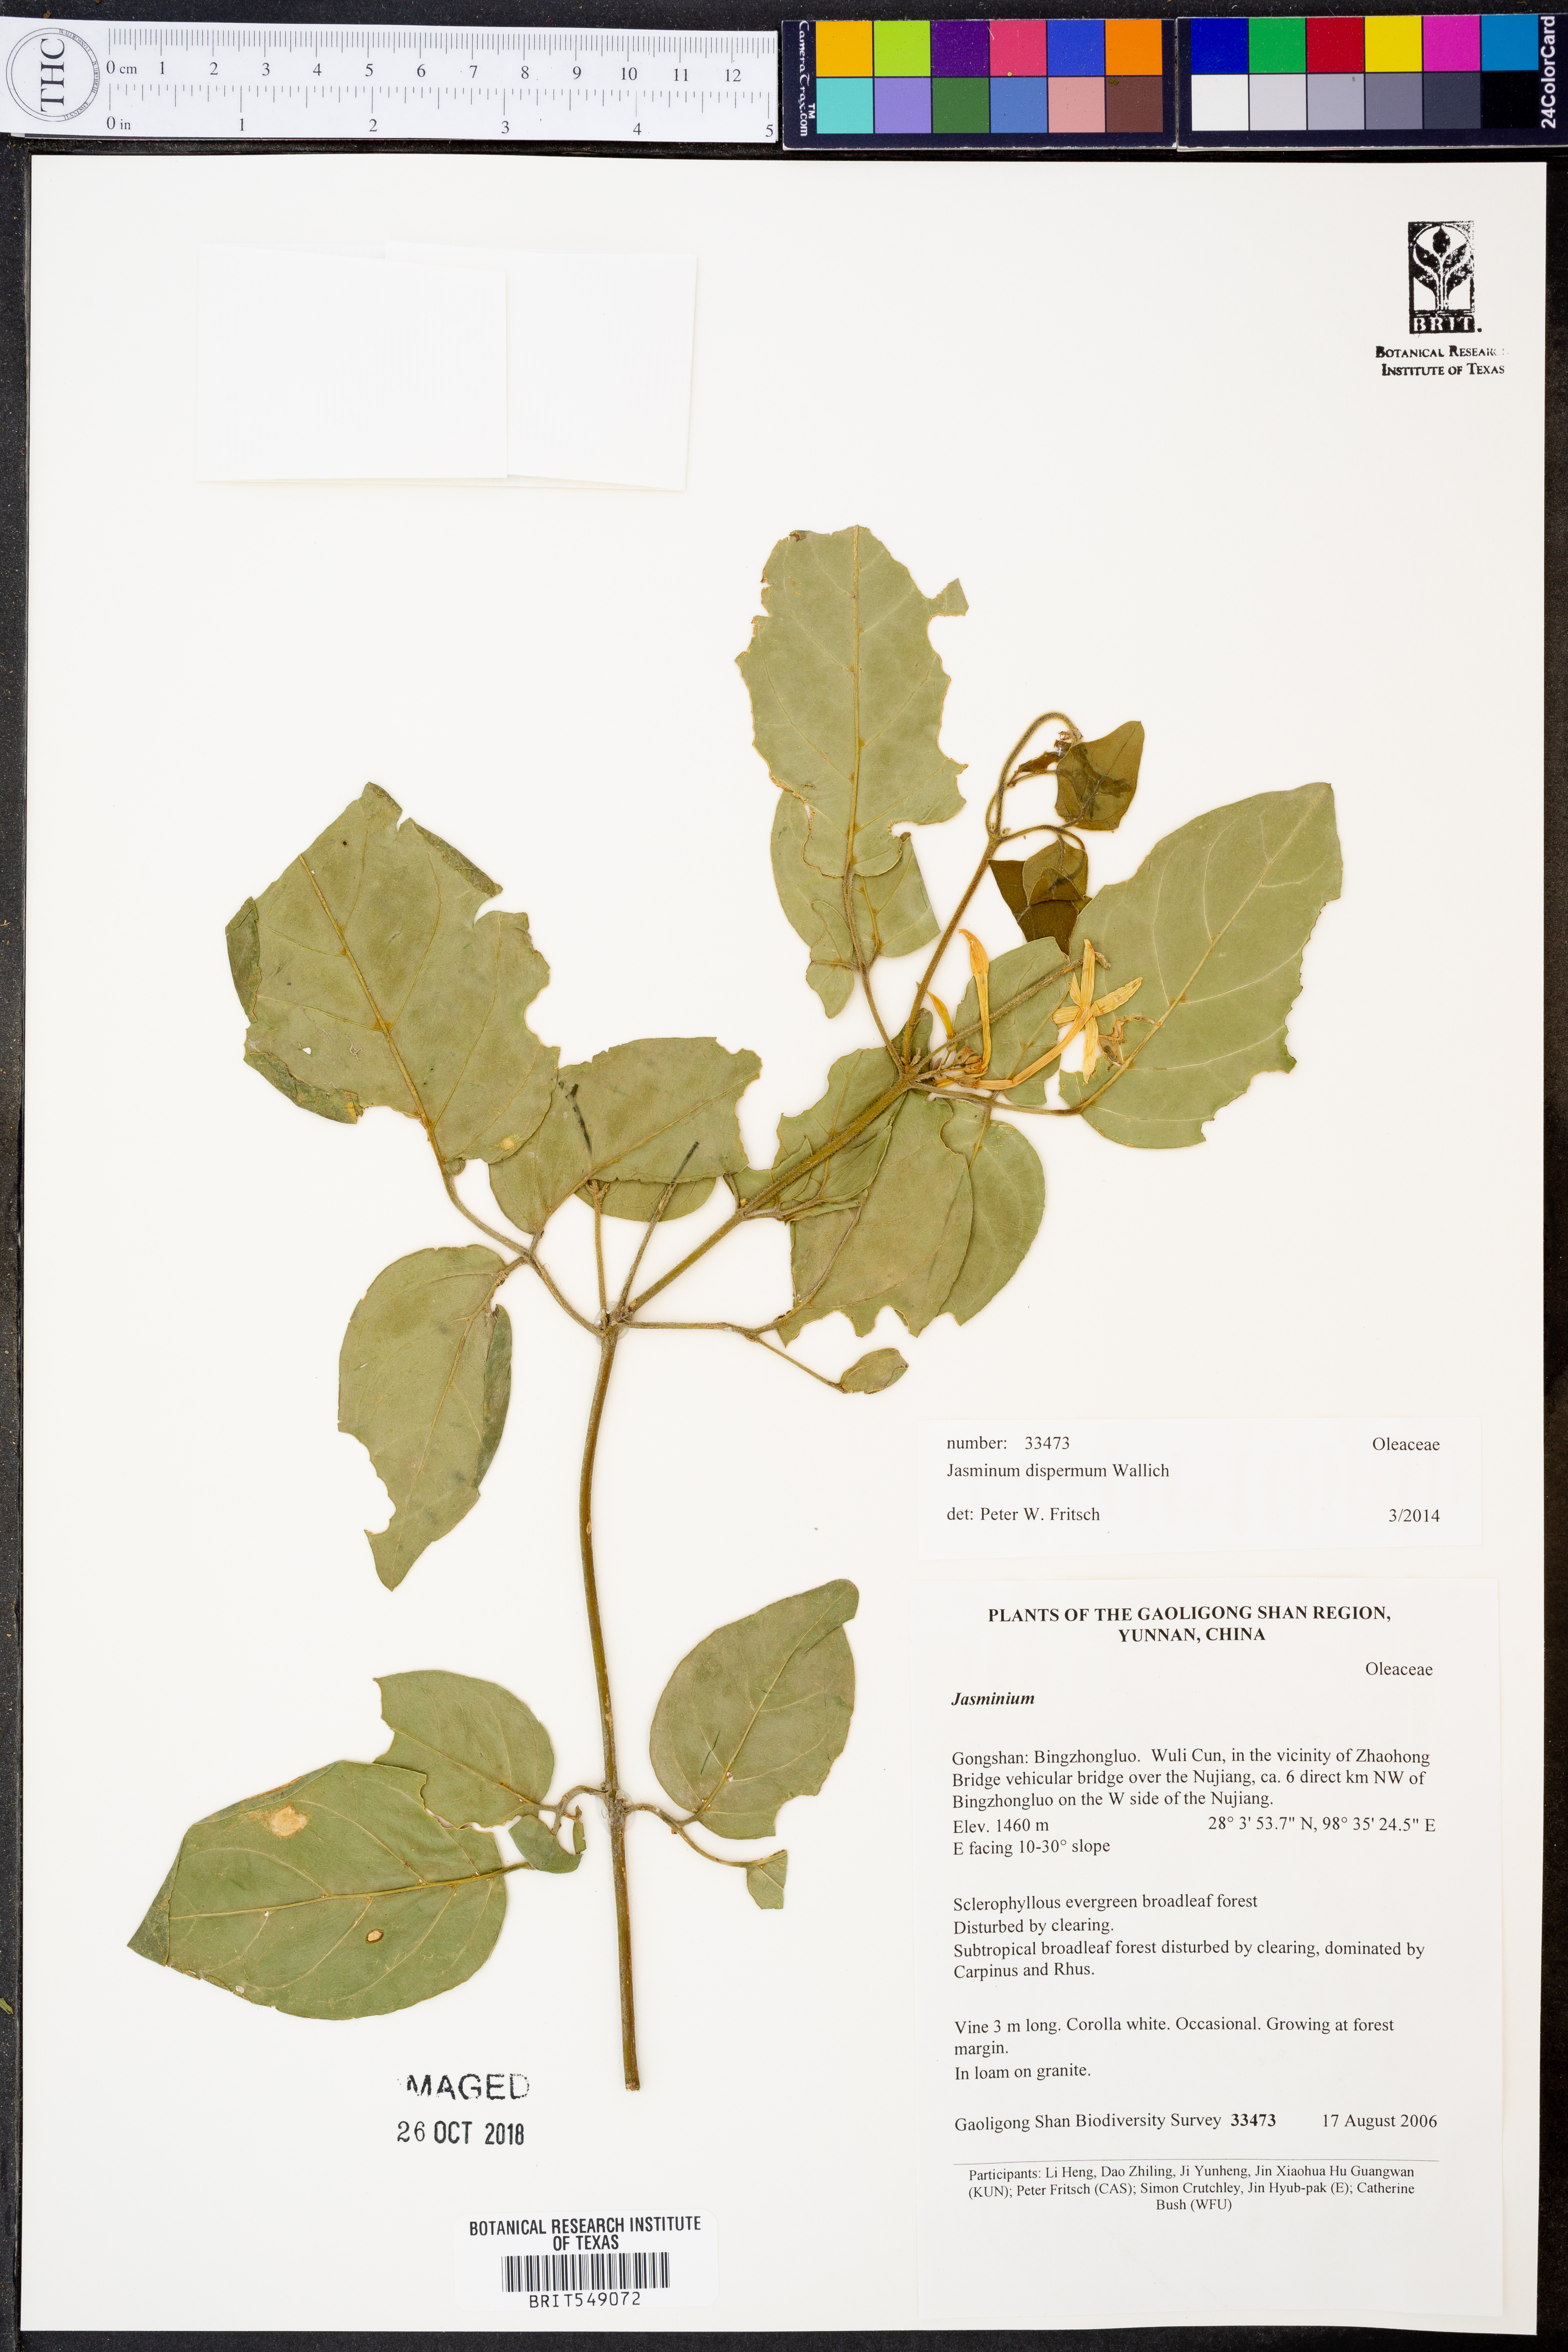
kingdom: Plantae
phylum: Tracheophyta
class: Magnoliopsida
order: Lamiales
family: Oleaceae
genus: Jasminum
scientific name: Jasminum dispermum
